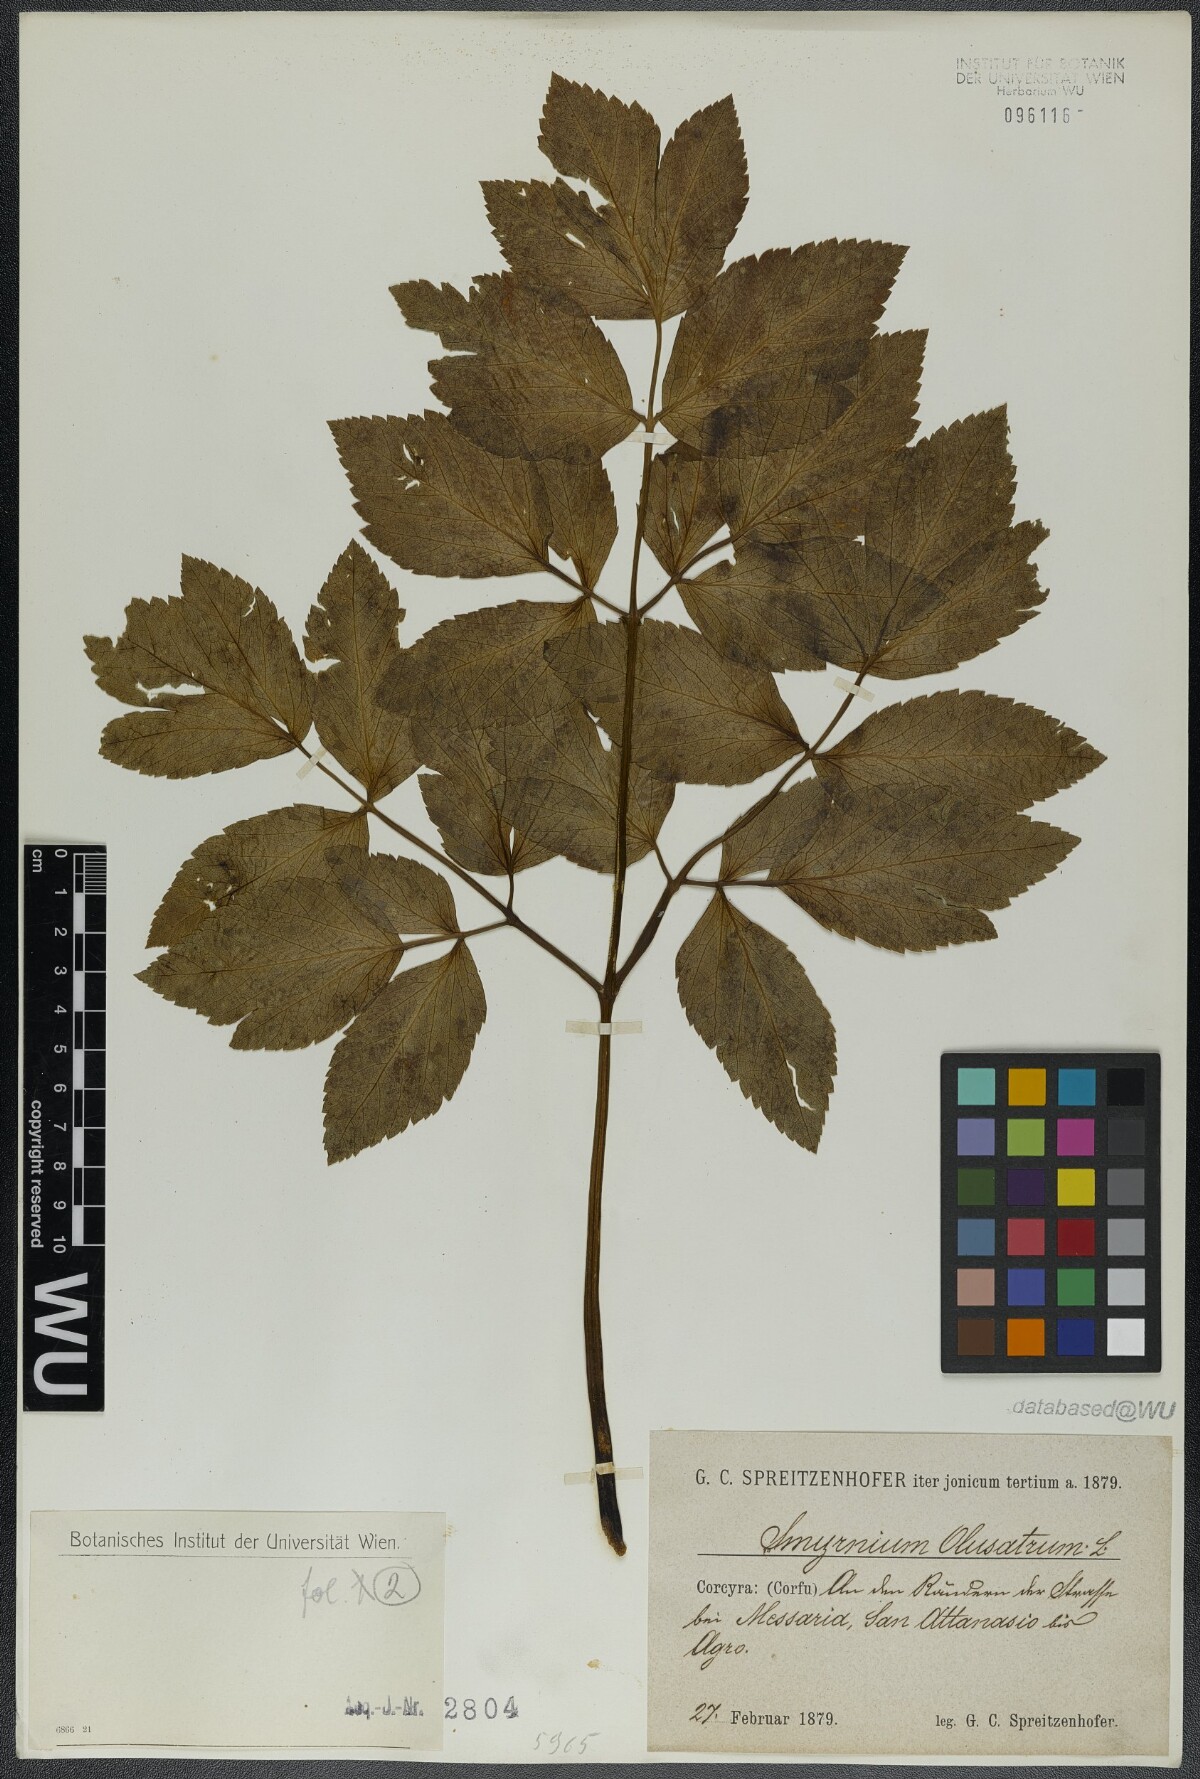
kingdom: Plantae
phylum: Tracheophyta
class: Magnoliopsida
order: Apiales
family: Apiaceae
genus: Smyrnium
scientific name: Smyrnium olusatrum
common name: Alexanders
